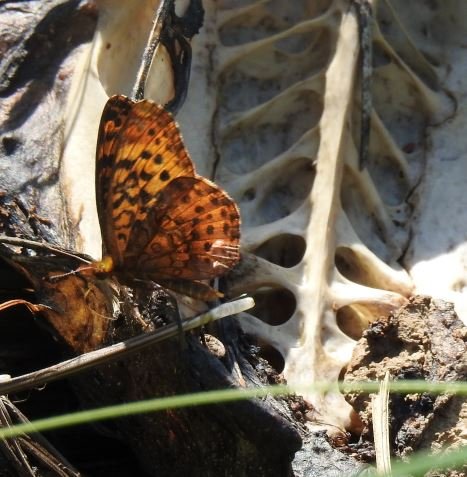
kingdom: Animalia
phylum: Arthropoda
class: Insecta
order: Lepidoptera
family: Nymphalidae
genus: Clossiana
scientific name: Clossiana toddi
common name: Meadow Fritillary
